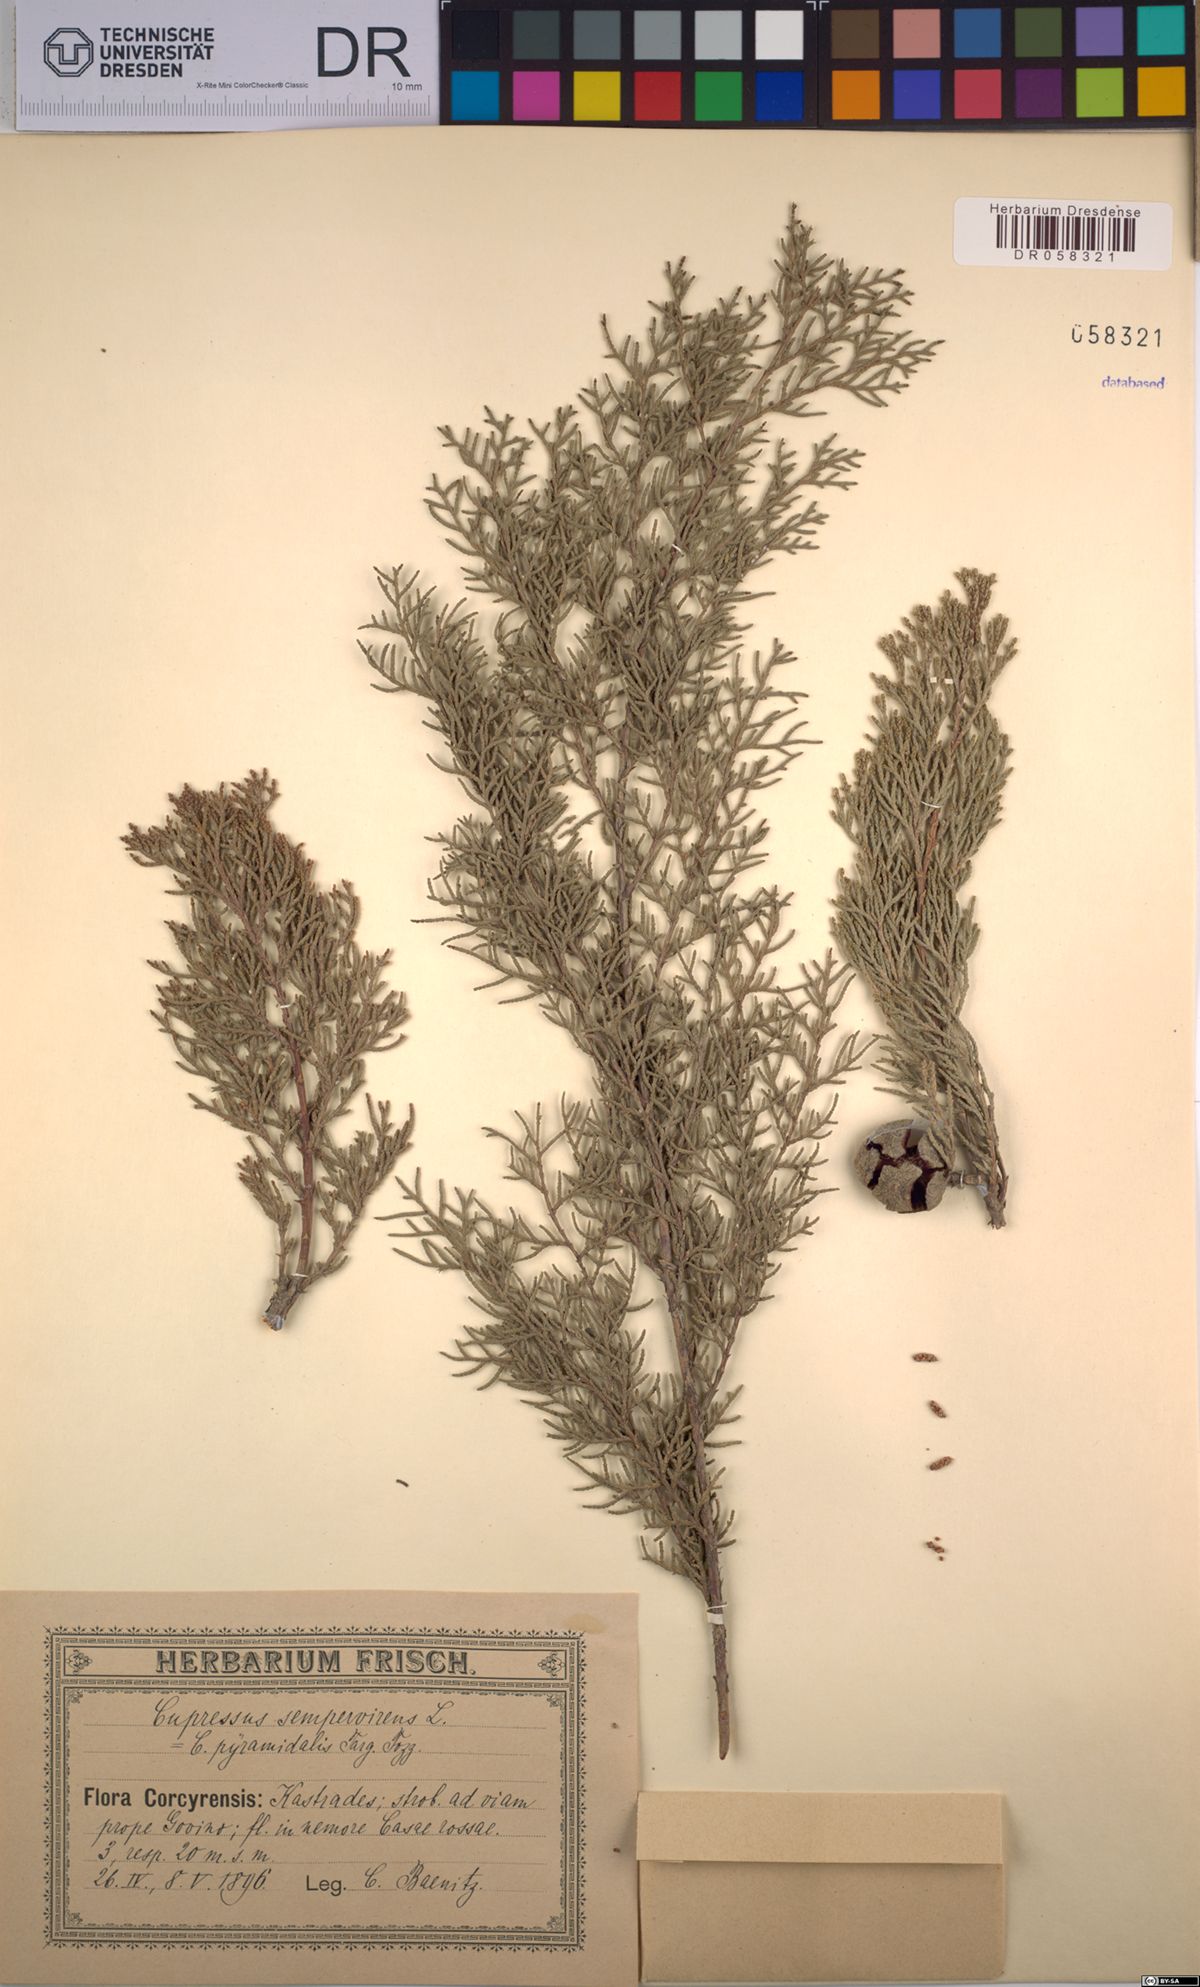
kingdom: Plantae
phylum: Tracheophyta
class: Pinopsida
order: Pinales
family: Cupressaceae
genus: Cupressus
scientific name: Cupressus sempervirens
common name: Italian cypress
